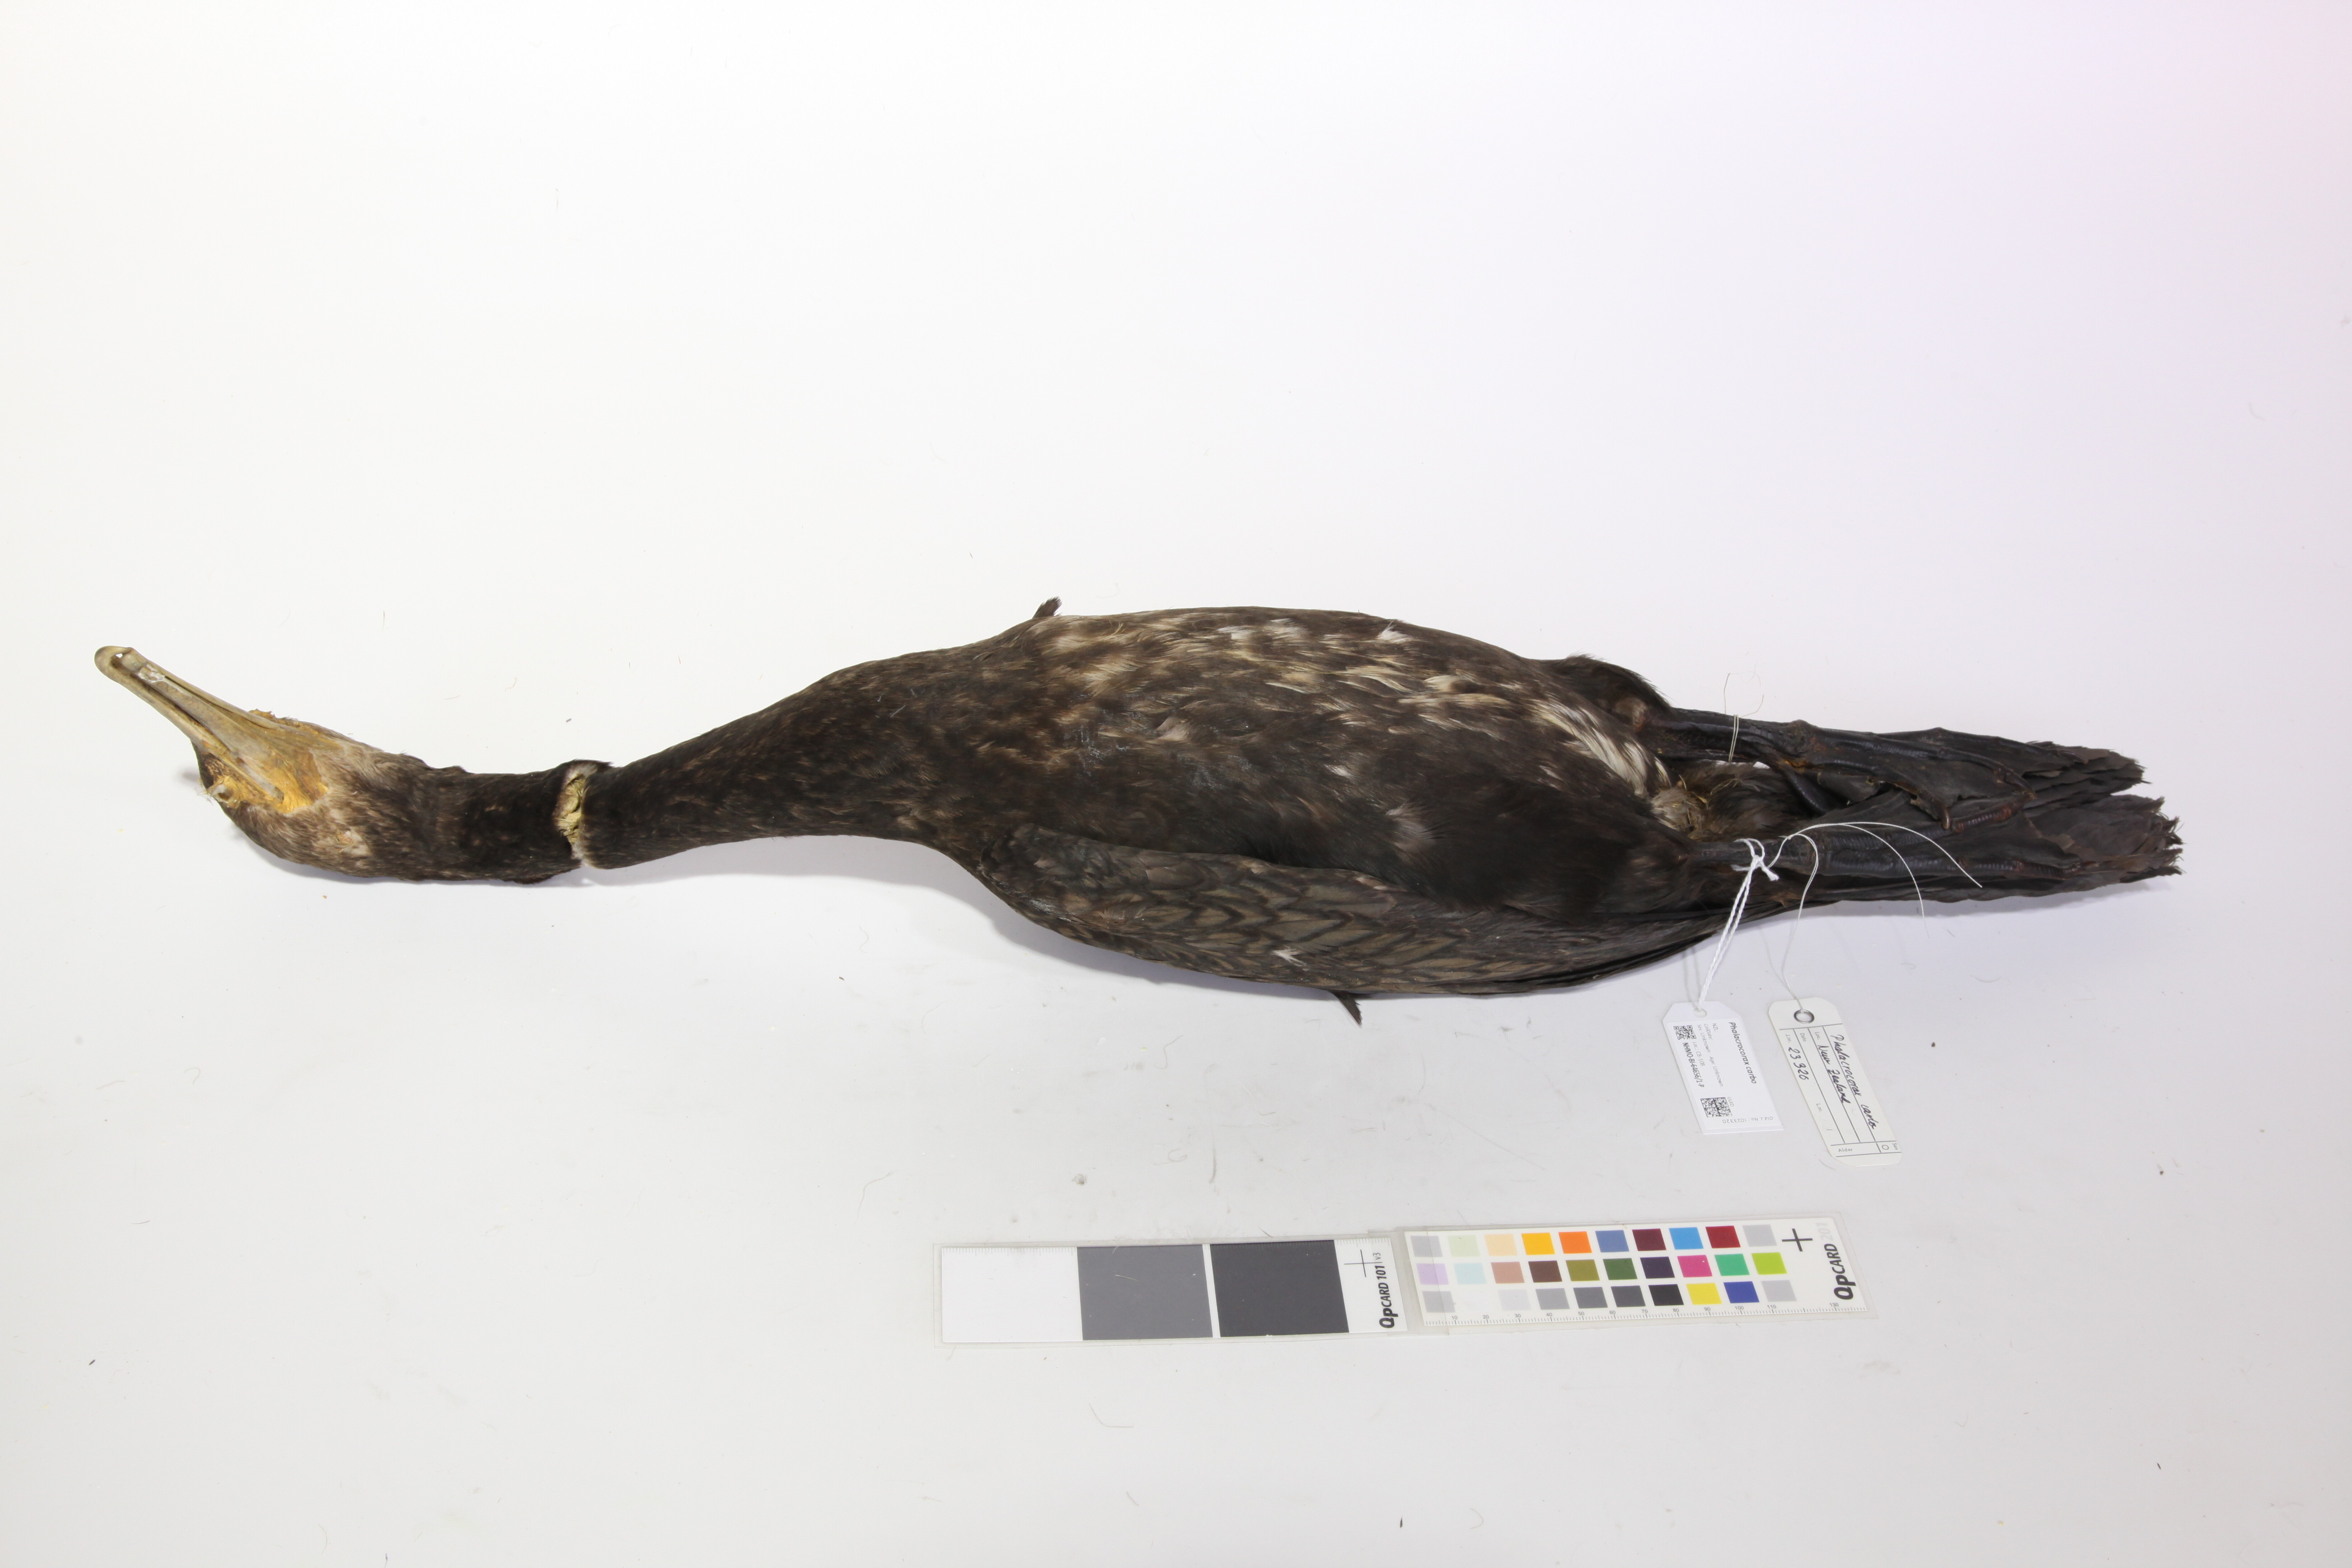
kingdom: Animalia
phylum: Chordata
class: Aves
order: Suliformes
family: Phalacrocoracidae
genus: Phalacrocorax
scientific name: Phalacrocorax carbo
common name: Great cormorant
